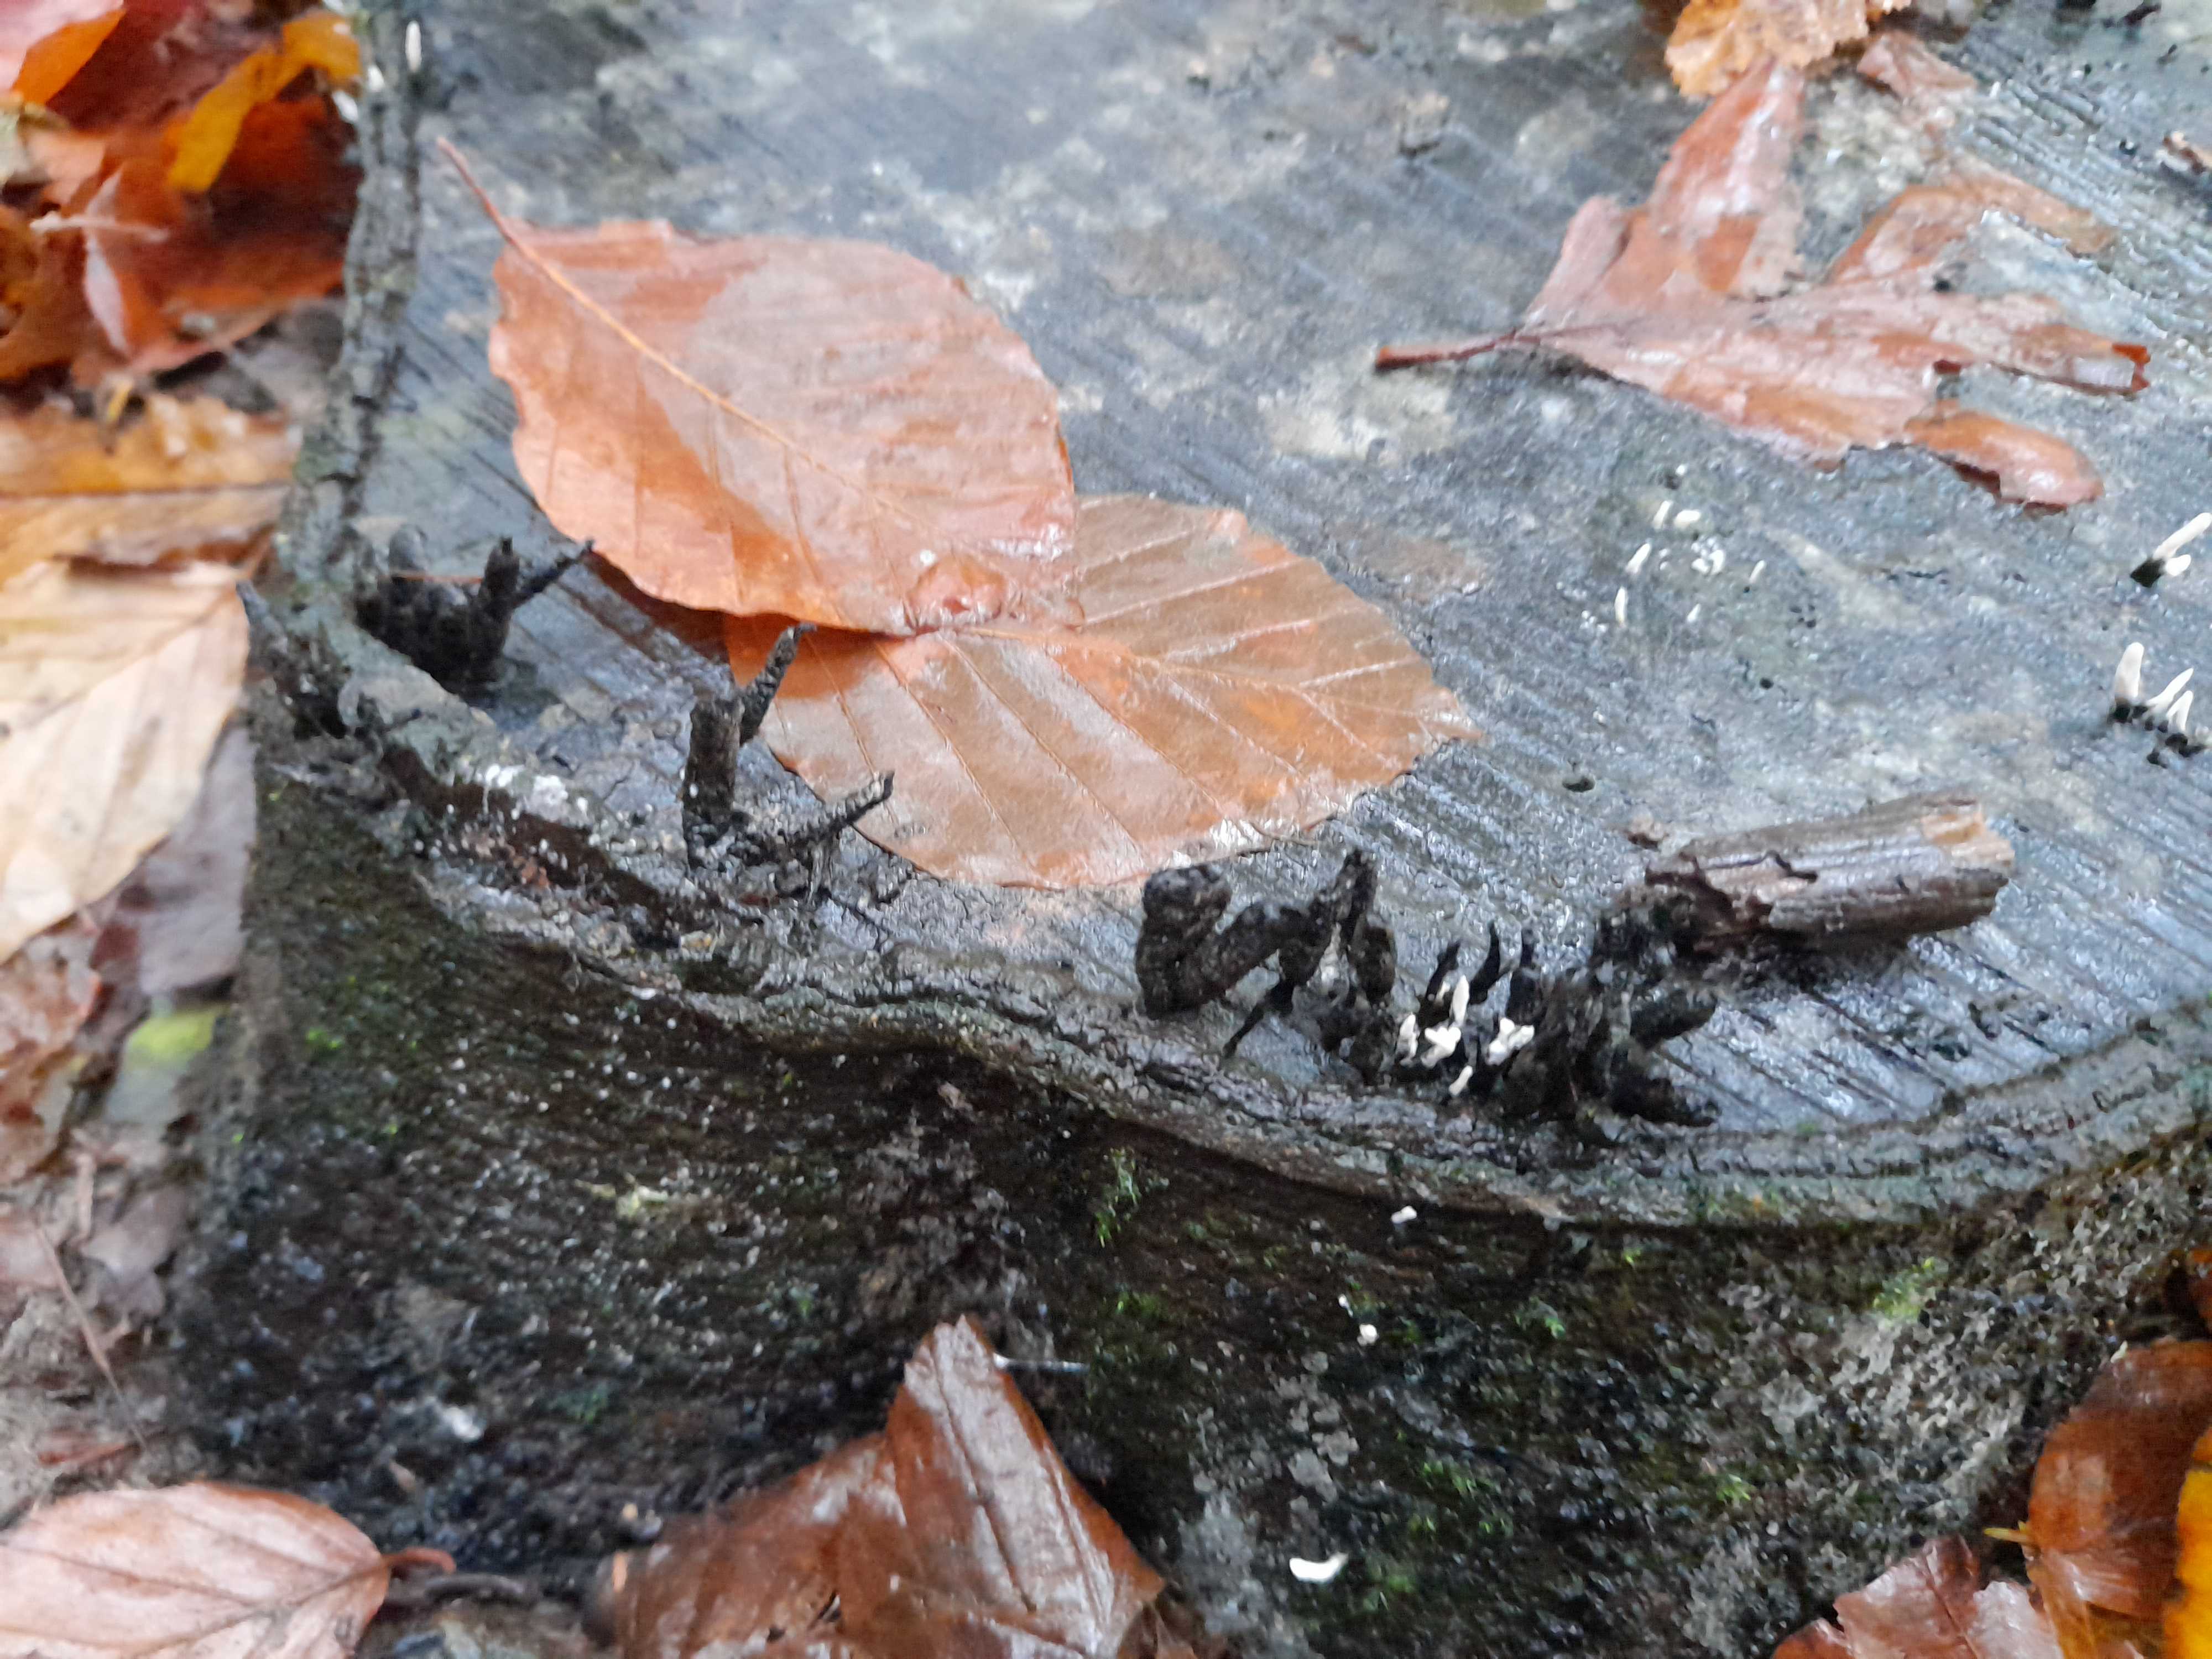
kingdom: Fungi
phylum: Ascomycota
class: Sordariomycetes
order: Xylariales
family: Xylariaceae
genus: Xylaria
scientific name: Xylaria hypoxylon
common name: grenet stødsvamp
